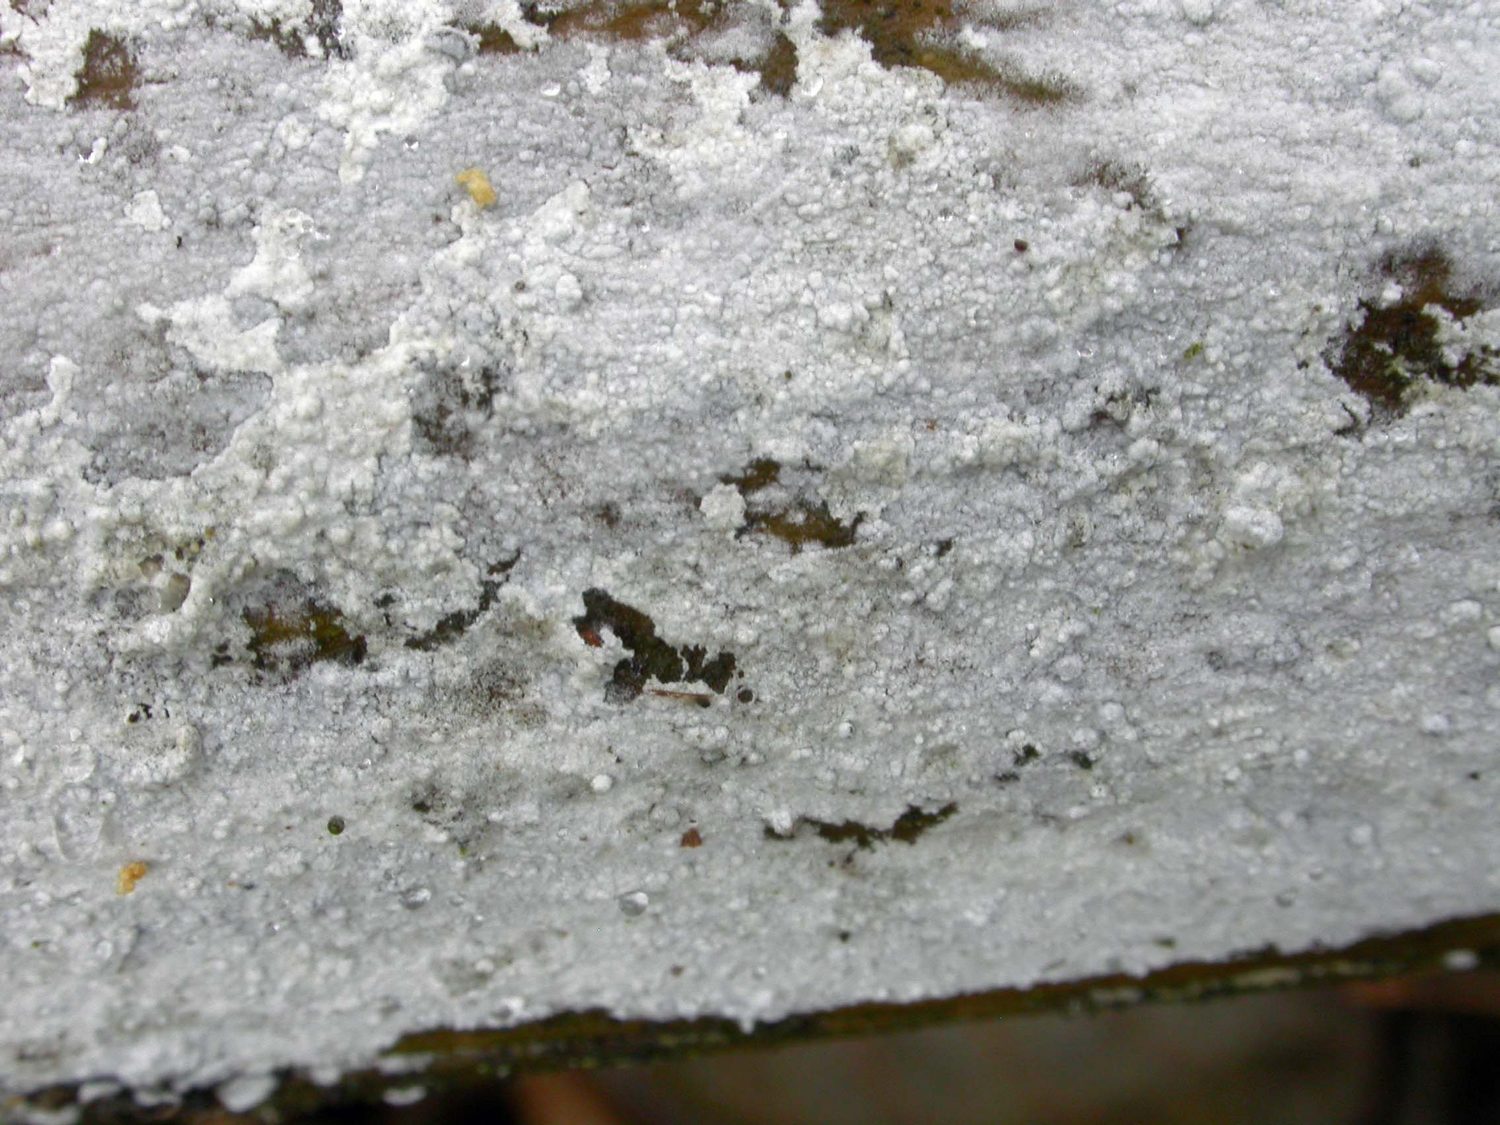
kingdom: Fungi
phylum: Basidiomycota
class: Agaricomycetes
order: Corticiales
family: Corticiaceae
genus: Lyomyces
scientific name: Lyomyces sambuci
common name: almindelig hyldehinde
